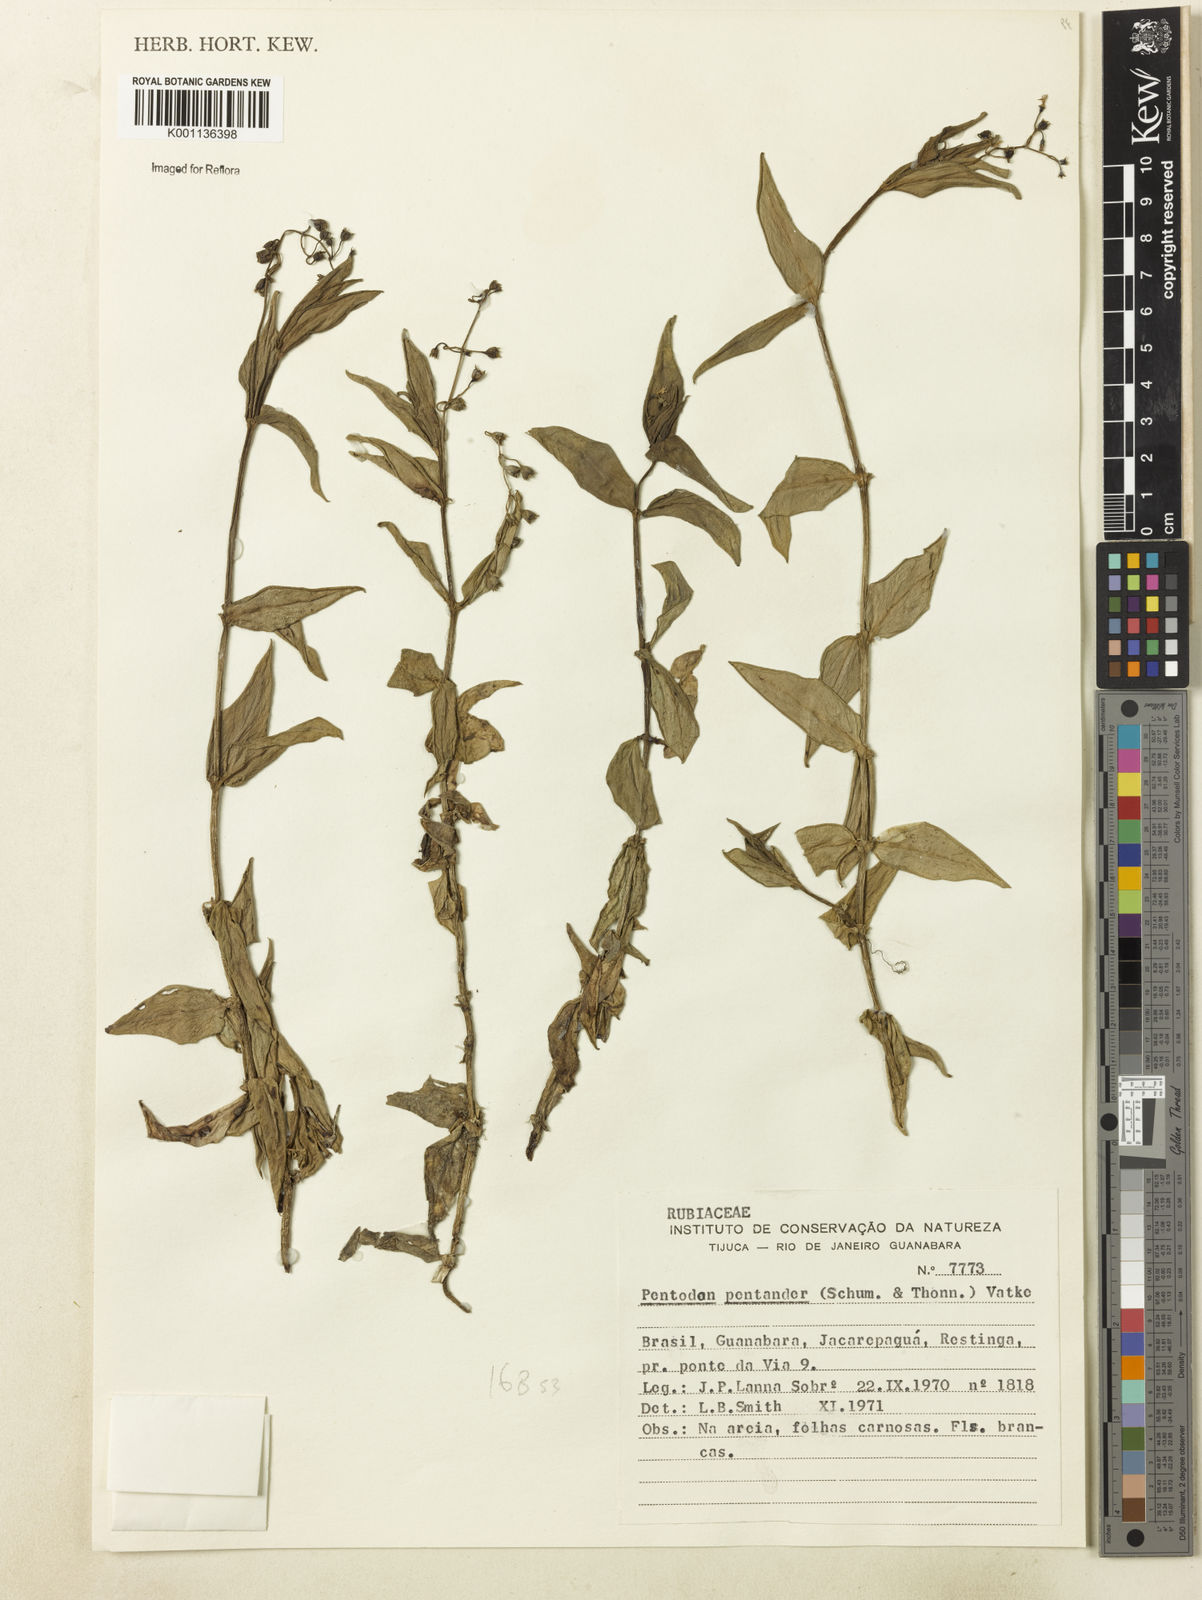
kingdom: Plantae
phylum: Tracheophyta
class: Magnoliopsida
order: Gentianales
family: Rubiaceae
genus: Pentodon
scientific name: Pentodon pentandrus
